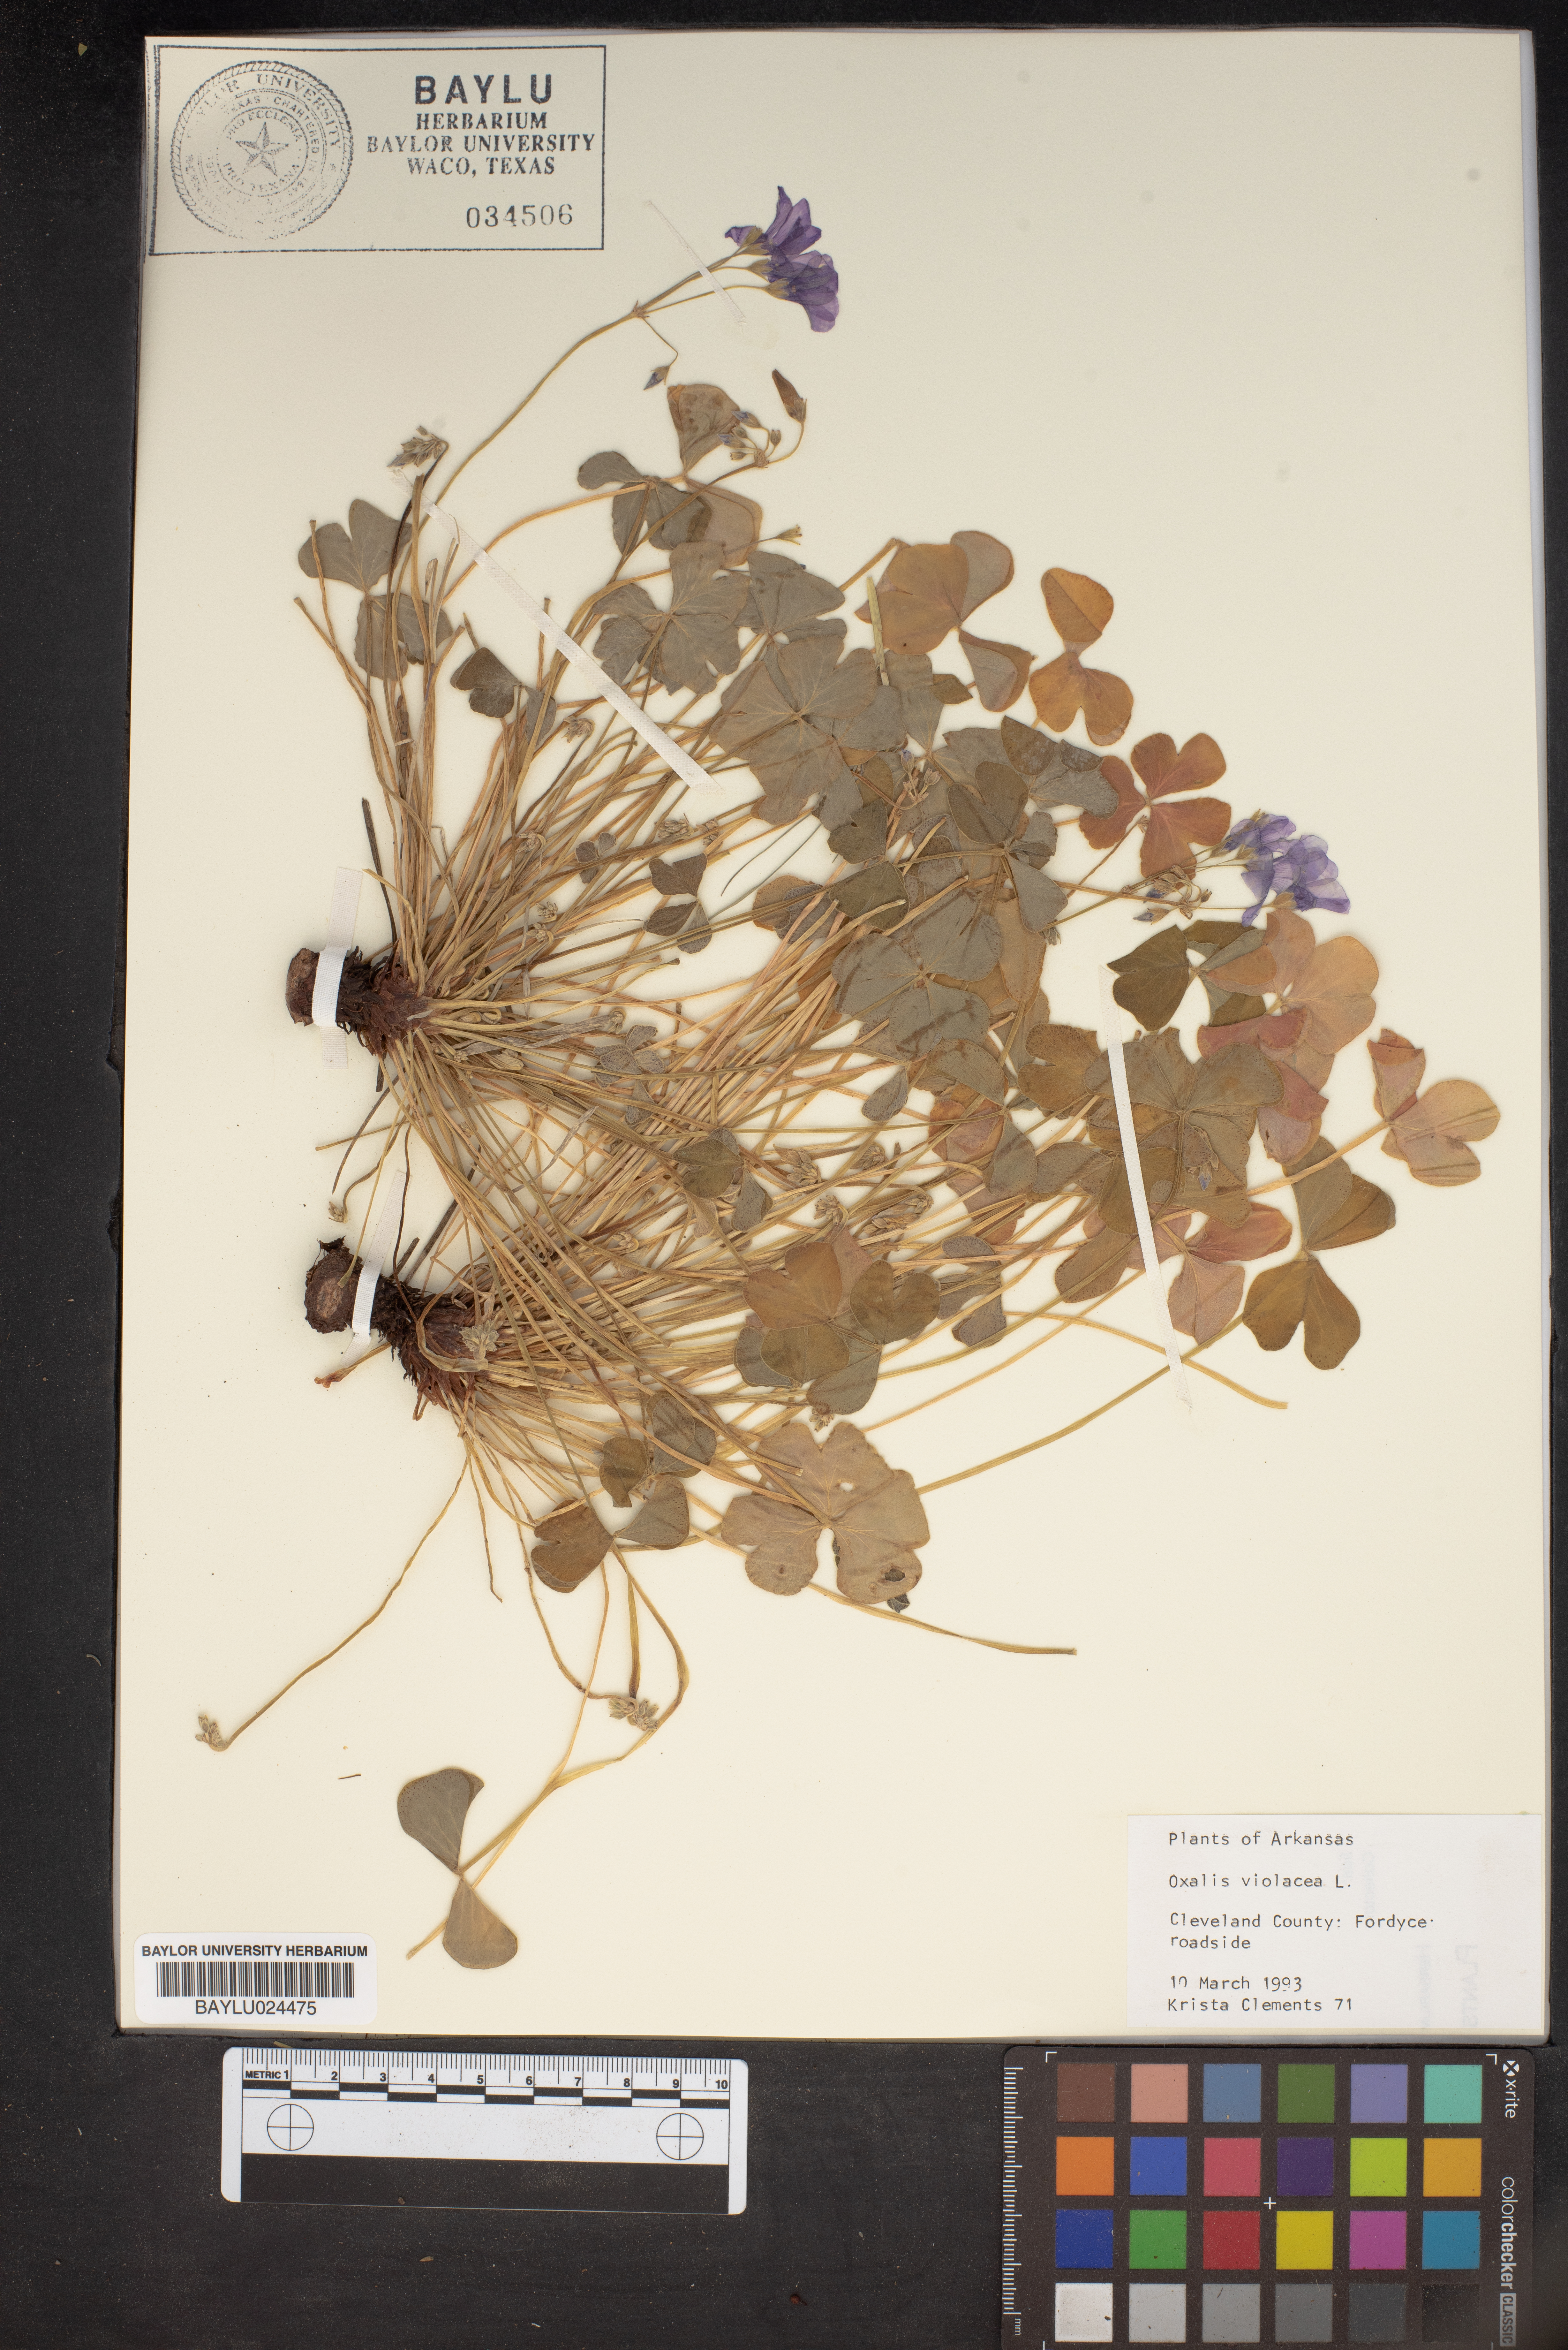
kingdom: Plantae
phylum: Tracheophyta
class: Magnoliopsida
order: Oxalidales
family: Oxalidaceae
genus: Oxalis
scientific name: Oxalis violacea
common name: Violet wood-sorrel
